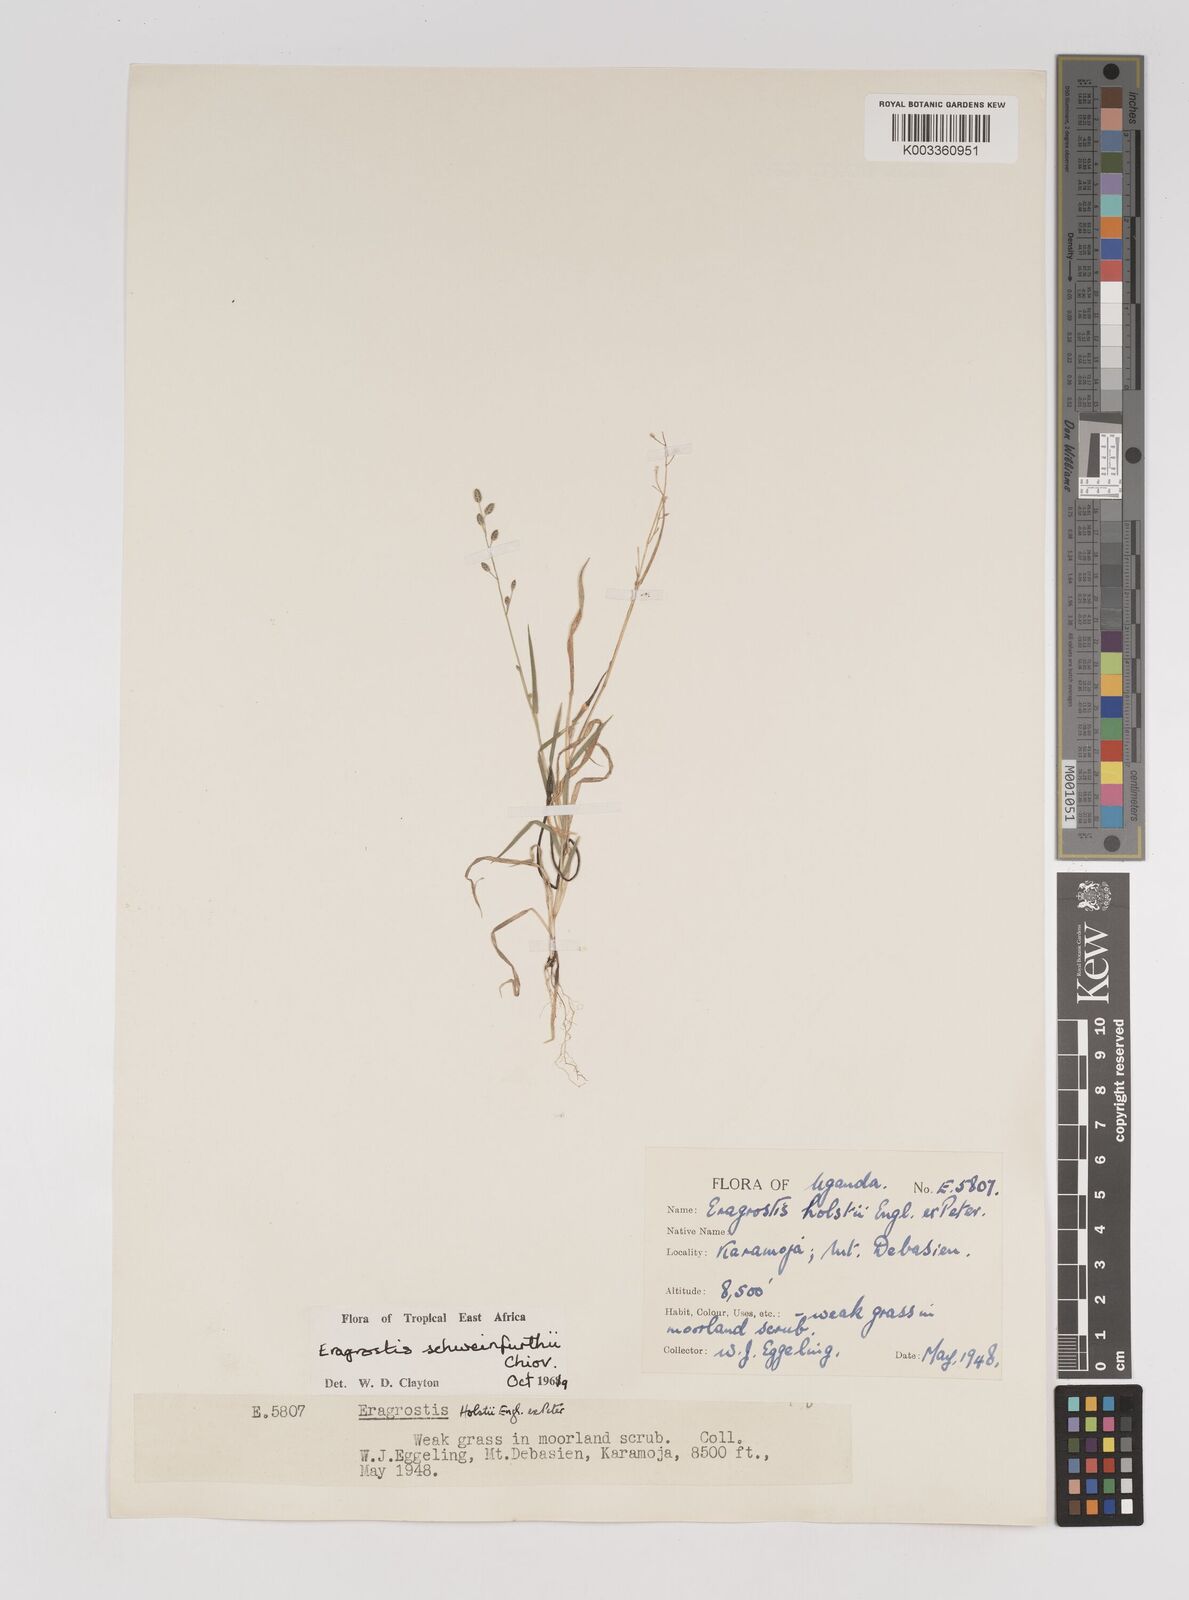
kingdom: Plantae
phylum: Tracheophyta
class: Liliopsida
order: Poales
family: Poaceae
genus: Eragrostis
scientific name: Eragrostis schweinfurthii
